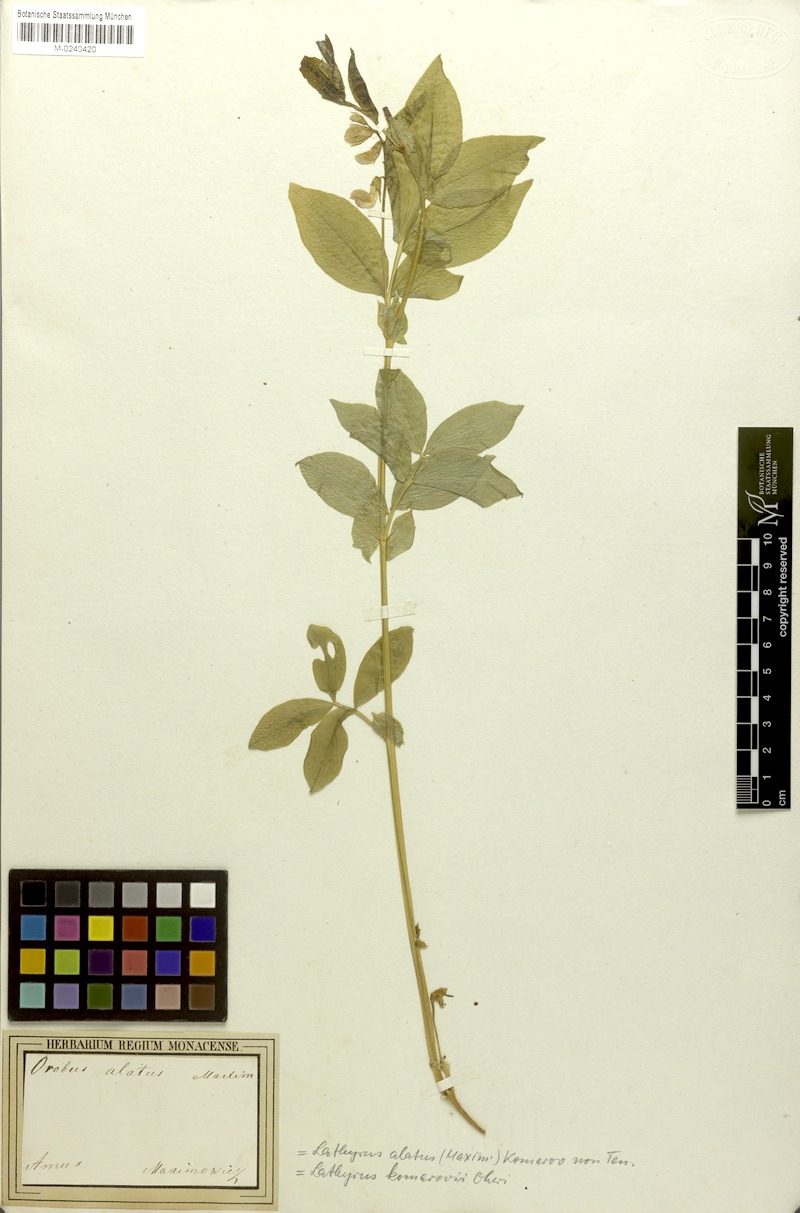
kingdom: Plantae
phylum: Tracheophyta
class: Magnoliopsida
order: Fabales
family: Fabaceae
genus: Lathyrus
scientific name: Lathyrus komarovii
